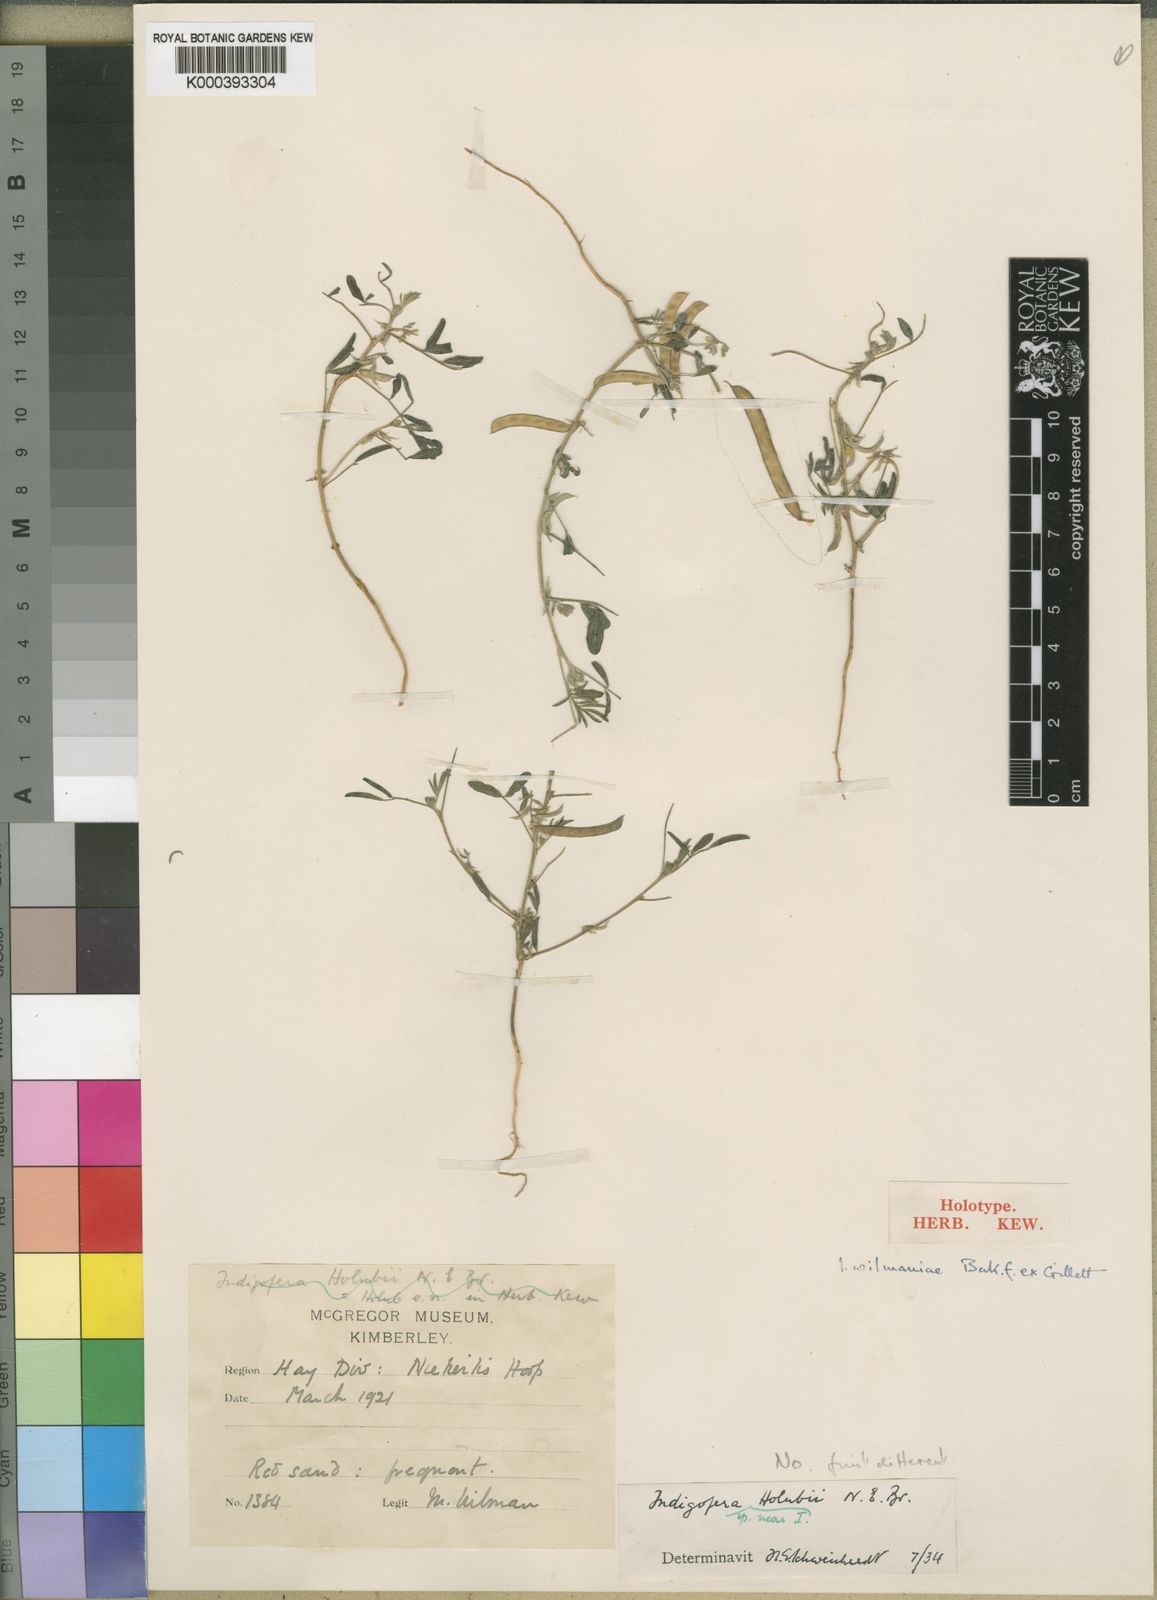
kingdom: Plantae
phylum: Tracheophyta
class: Magnoliopsida
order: Fabales
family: Fabaceae
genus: Indigofera
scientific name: Indigofera damarana
